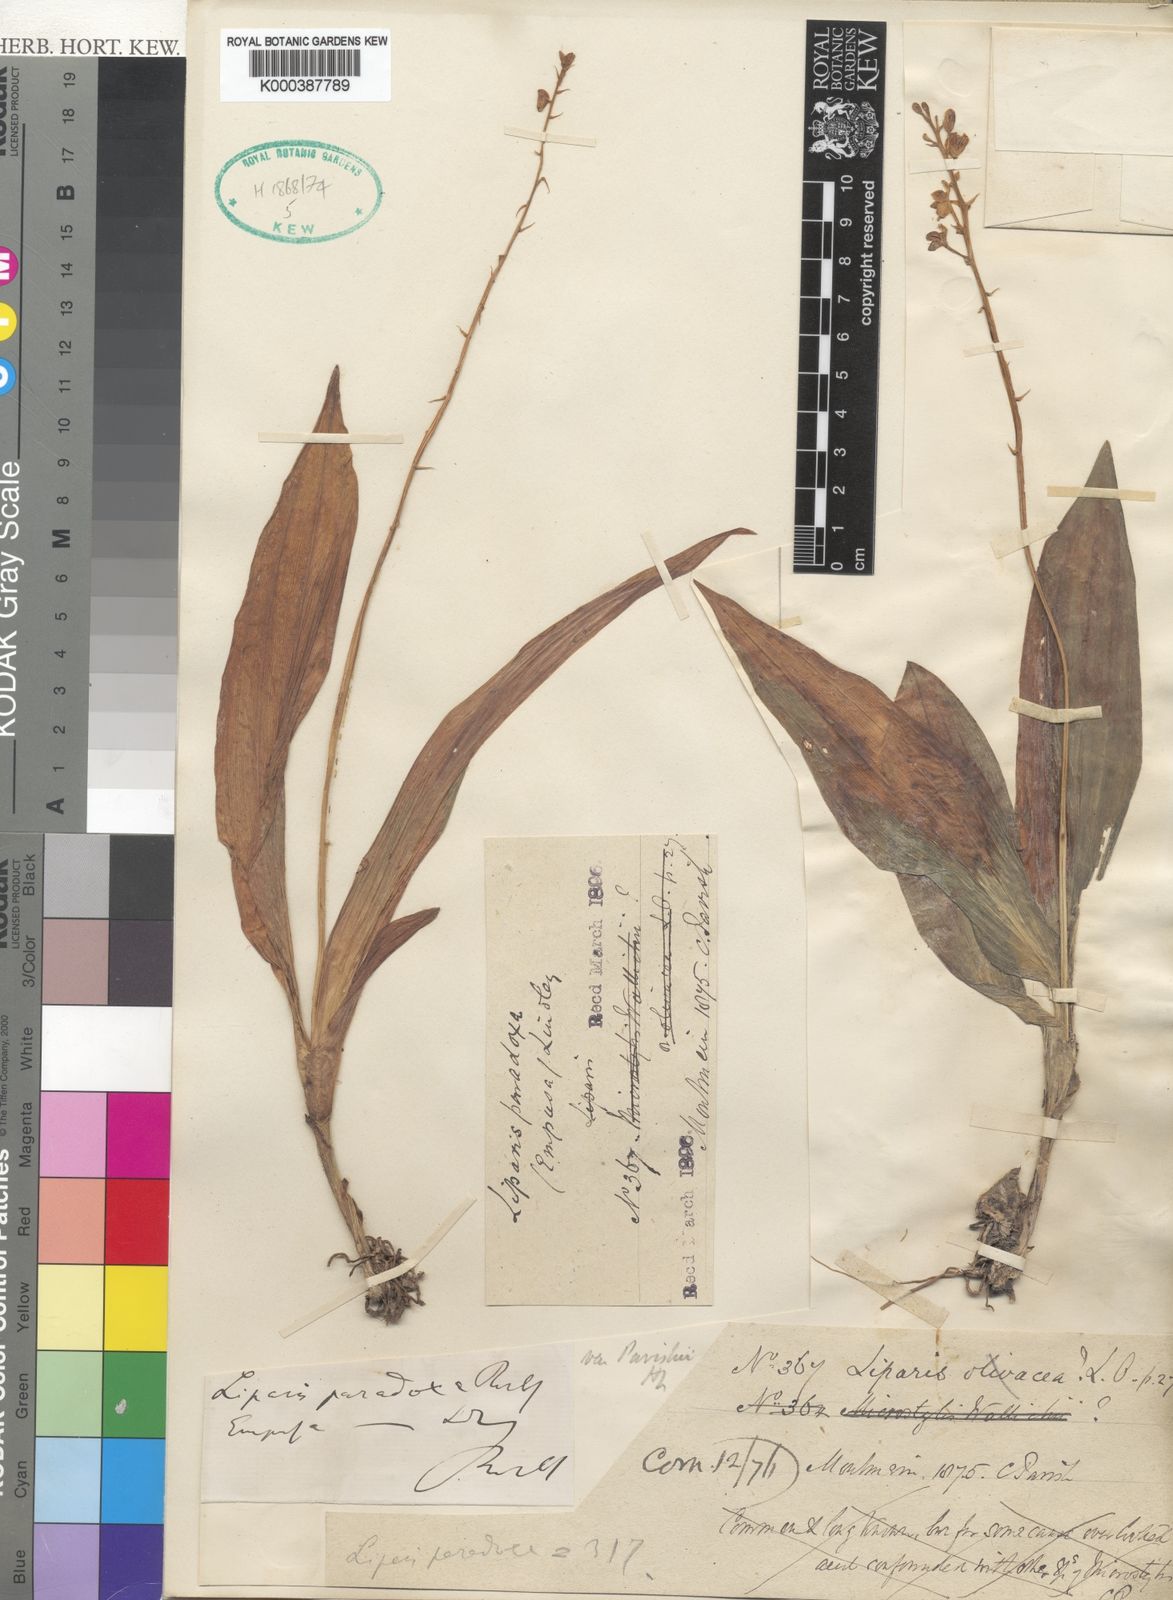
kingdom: Plantae
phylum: Tracheophyta
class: Liliopsida
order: Asparagales
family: Orchidaceae
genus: Liparis
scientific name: Liparis odorata
